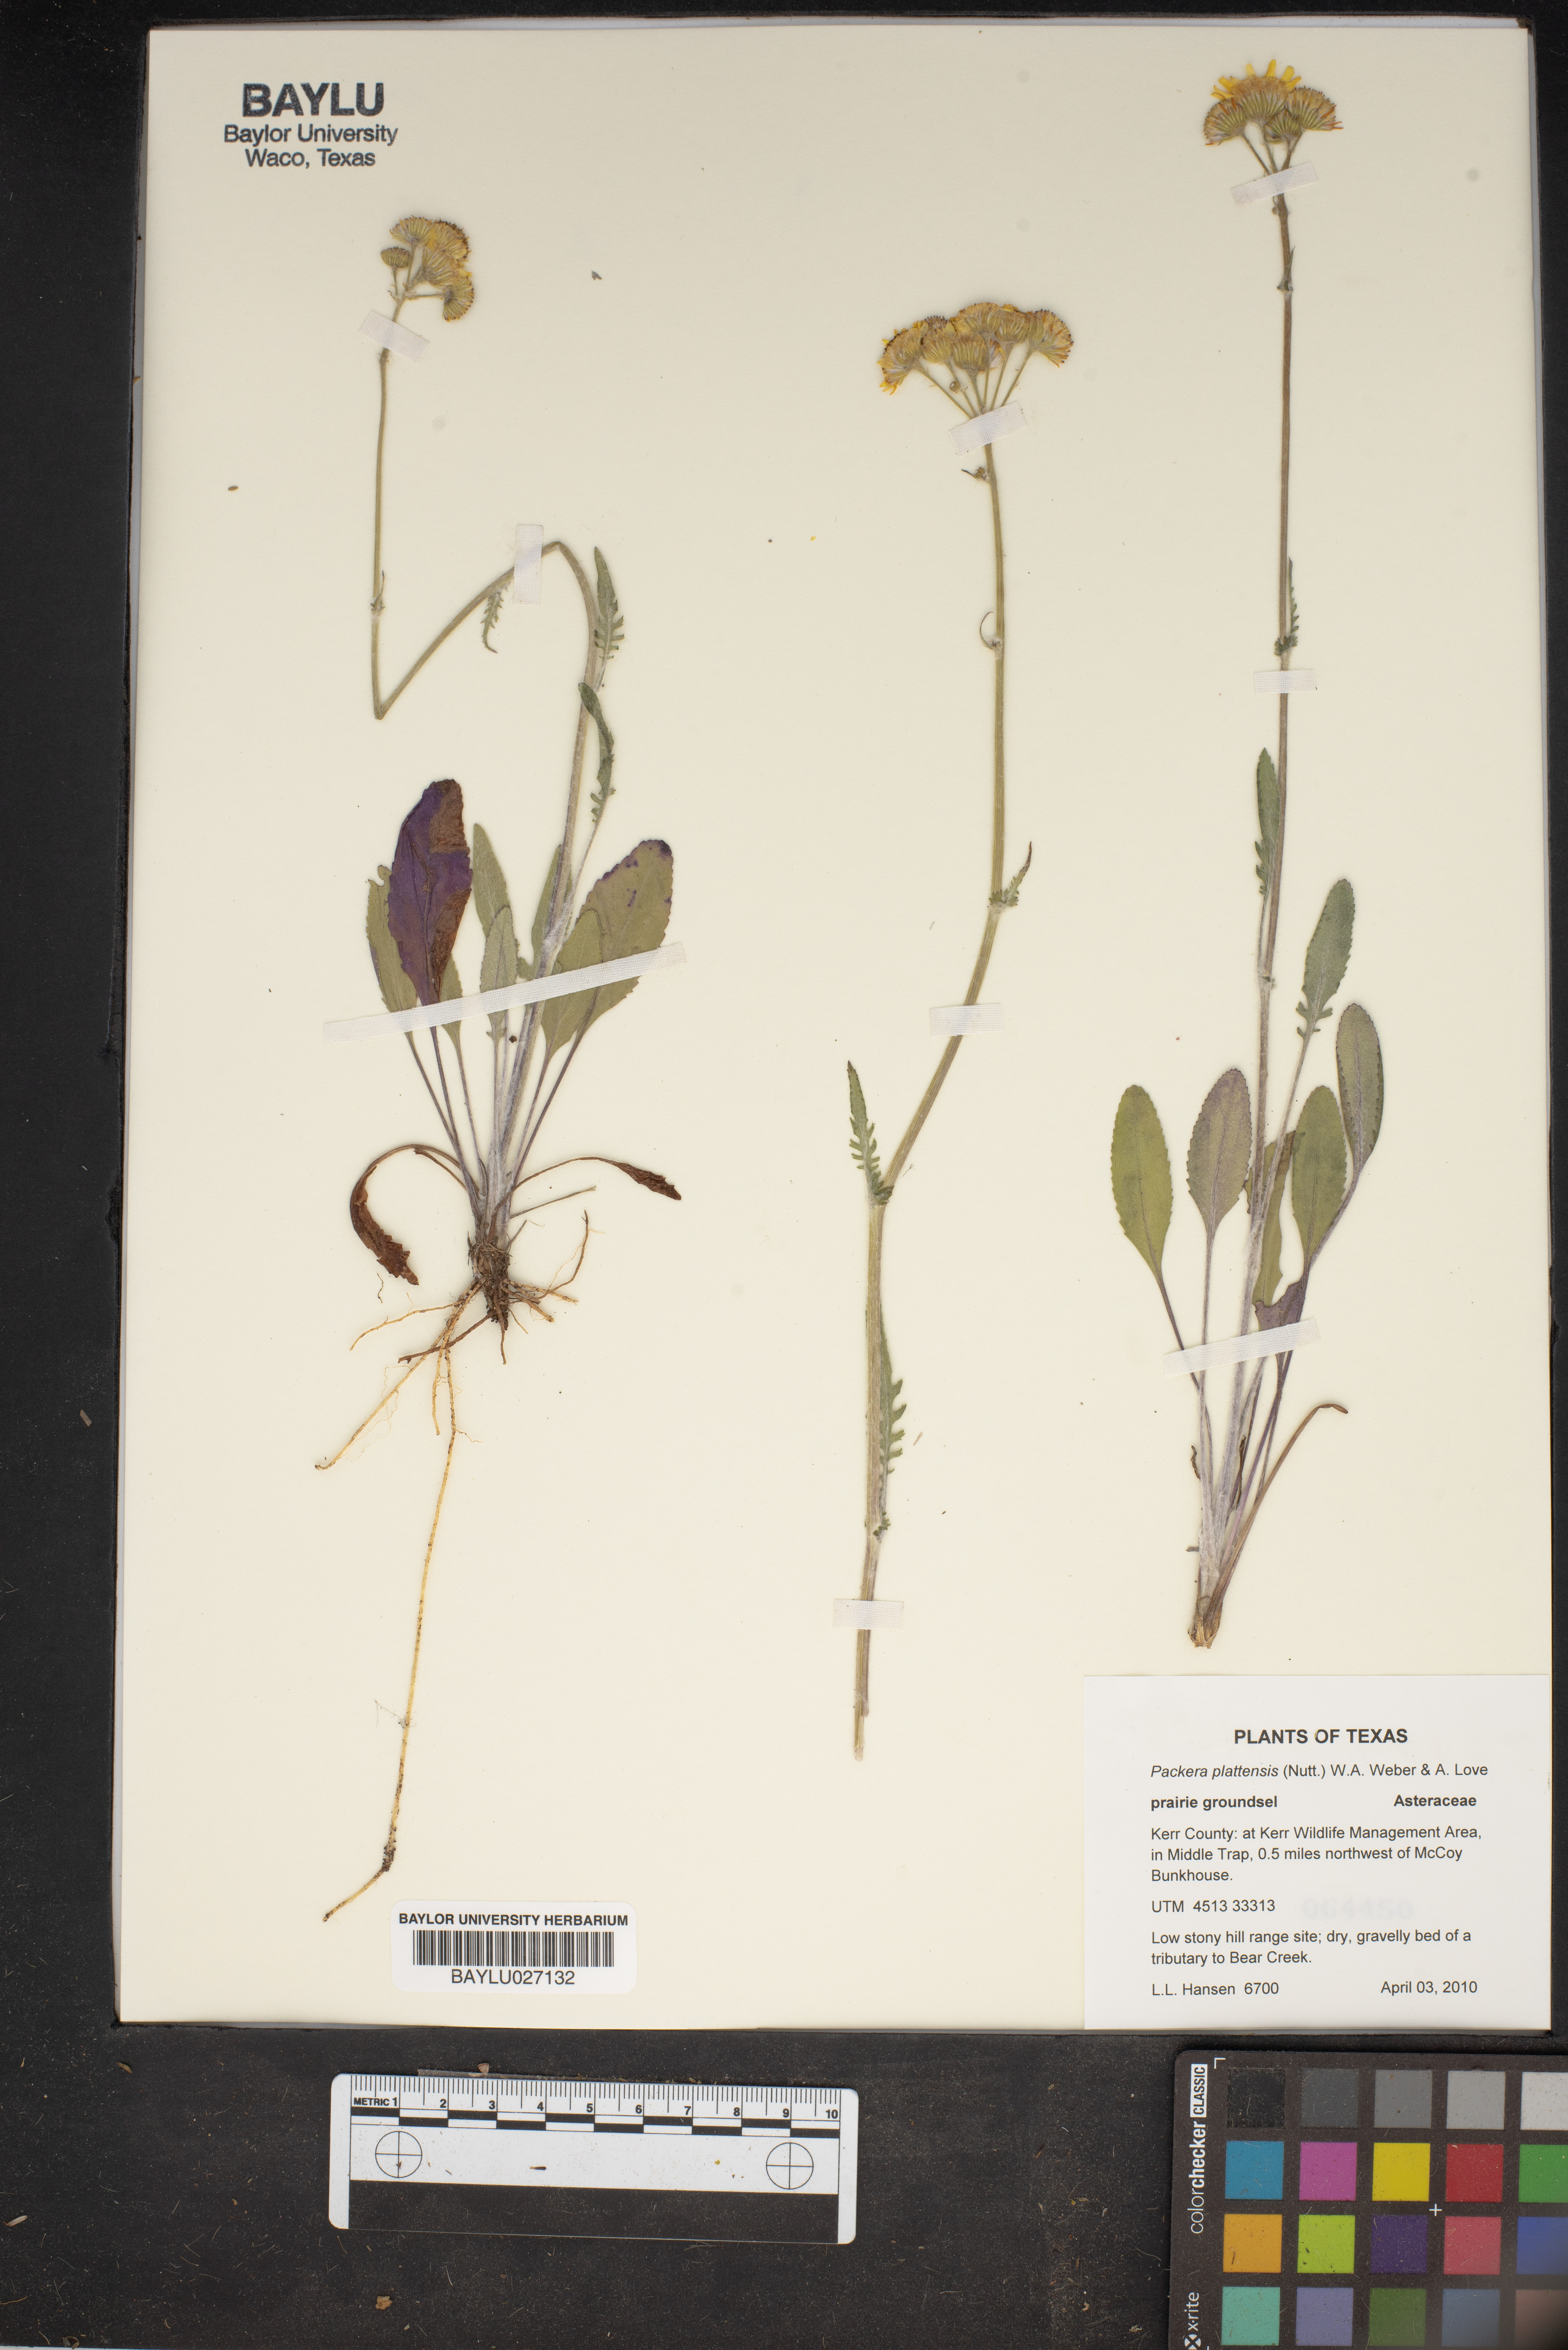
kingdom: Plantae
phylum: Tracheophyta
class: Magnoliopsida
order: Asterales
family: Asteraceae
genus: Packera
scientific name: Packera plattensis
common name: Prairie groundsel
